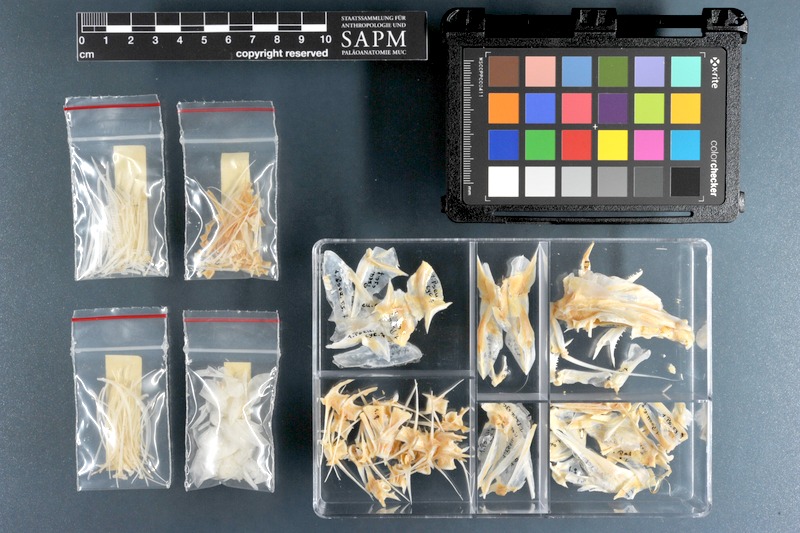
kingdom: Animalia
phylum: Chordata
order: Perciformes
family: Mullidae
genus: Parupeneus
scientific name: Parupeneus cyclostomus
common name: Goldsaddle goatfish
